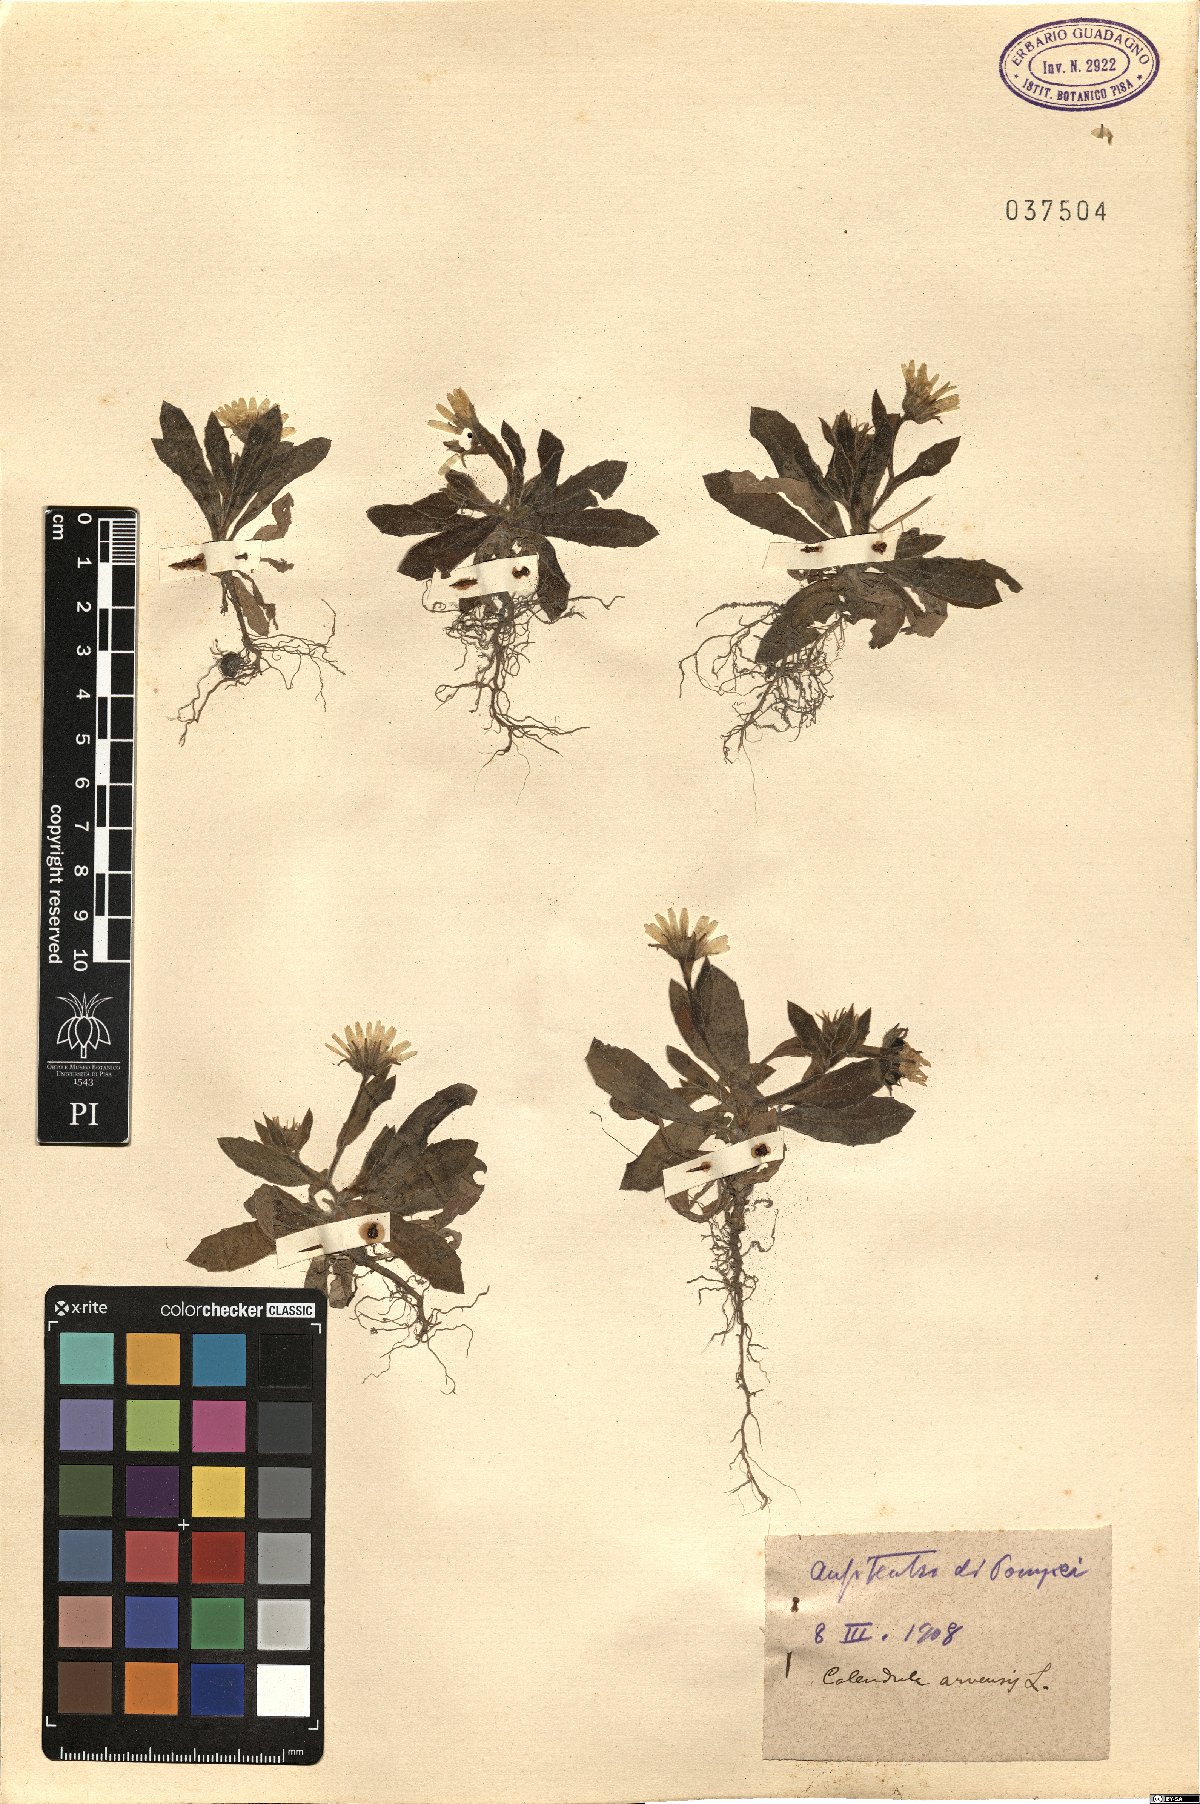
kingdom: Plantae
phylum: Tracheophyta
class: Magnoliopsida
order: Asterales
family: Asteraceae
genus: Calendula
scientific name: Calendula arvensis
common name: Field marigold
